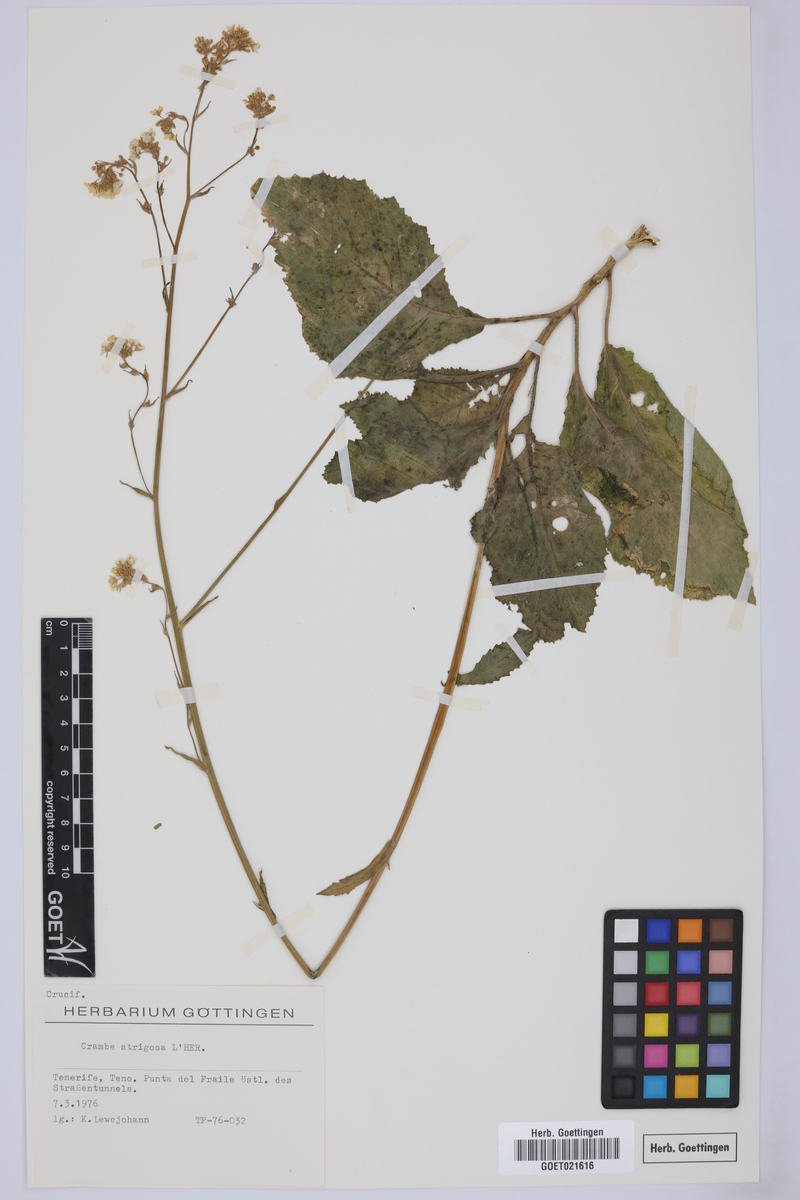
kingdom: Plantae
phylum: Tracheophyta
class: Magnoliopsida
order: Brassicales
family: Brassicaceae
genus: Crambe
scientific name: Crambe strigosa
